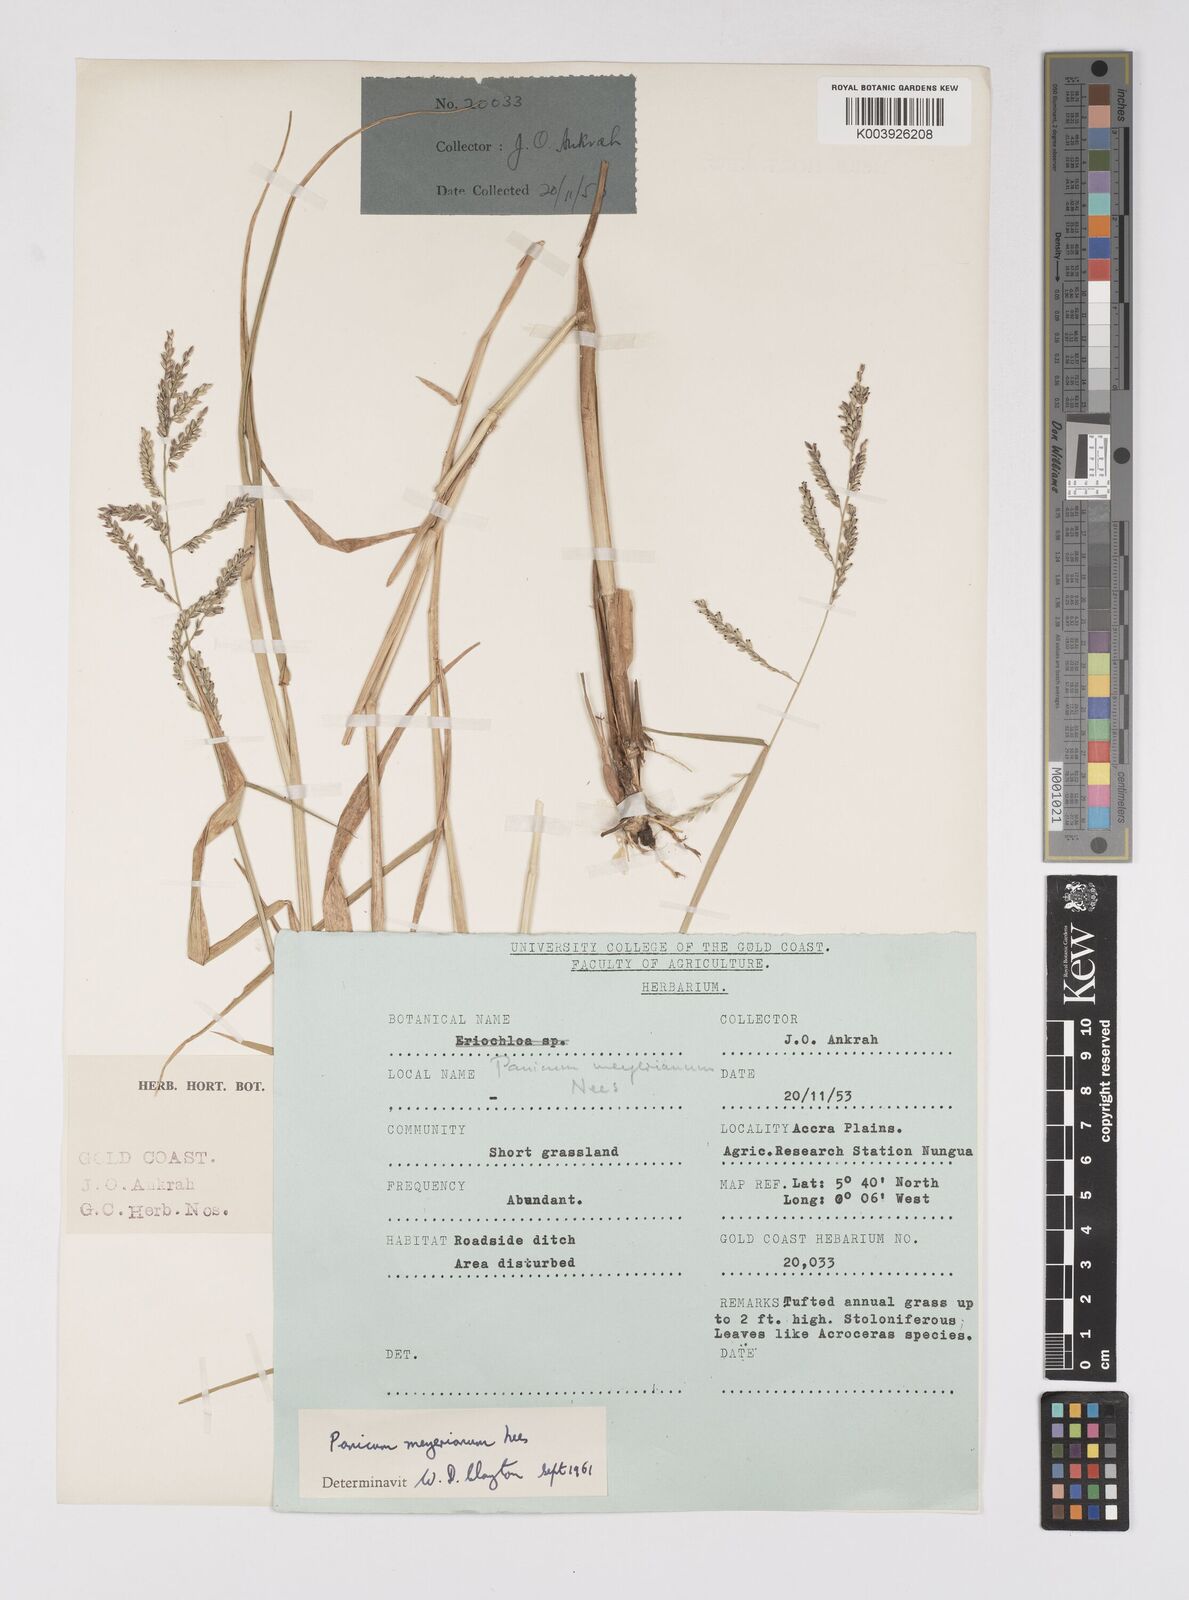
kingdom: Plantae
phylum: Tracheophyta
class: Liliopsida
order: Poales
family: Poaceae
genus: Eriochloa
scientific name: Eriochloa meyeriana
